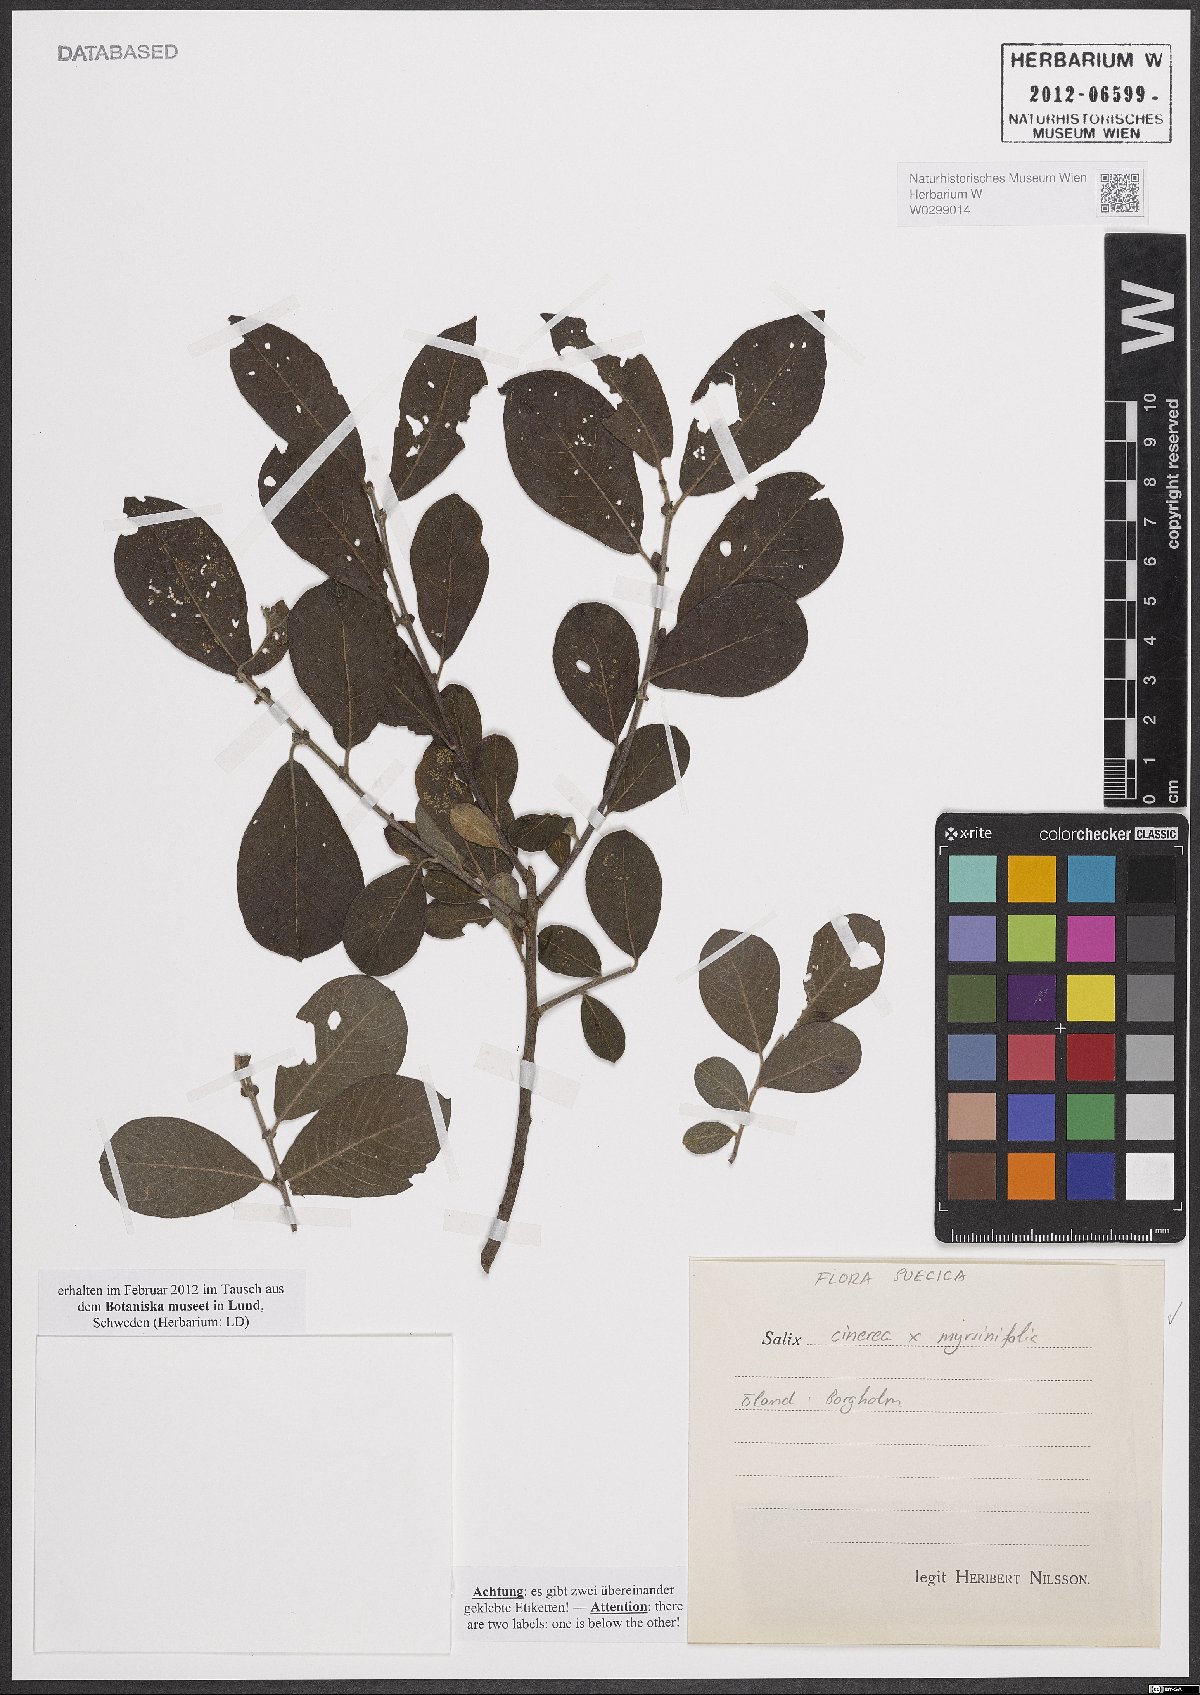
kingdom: Plantae
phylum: Tracheophyta
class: Magnoliopsida
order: Malpighiales
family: Salicaceae
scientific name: Salicaceae
